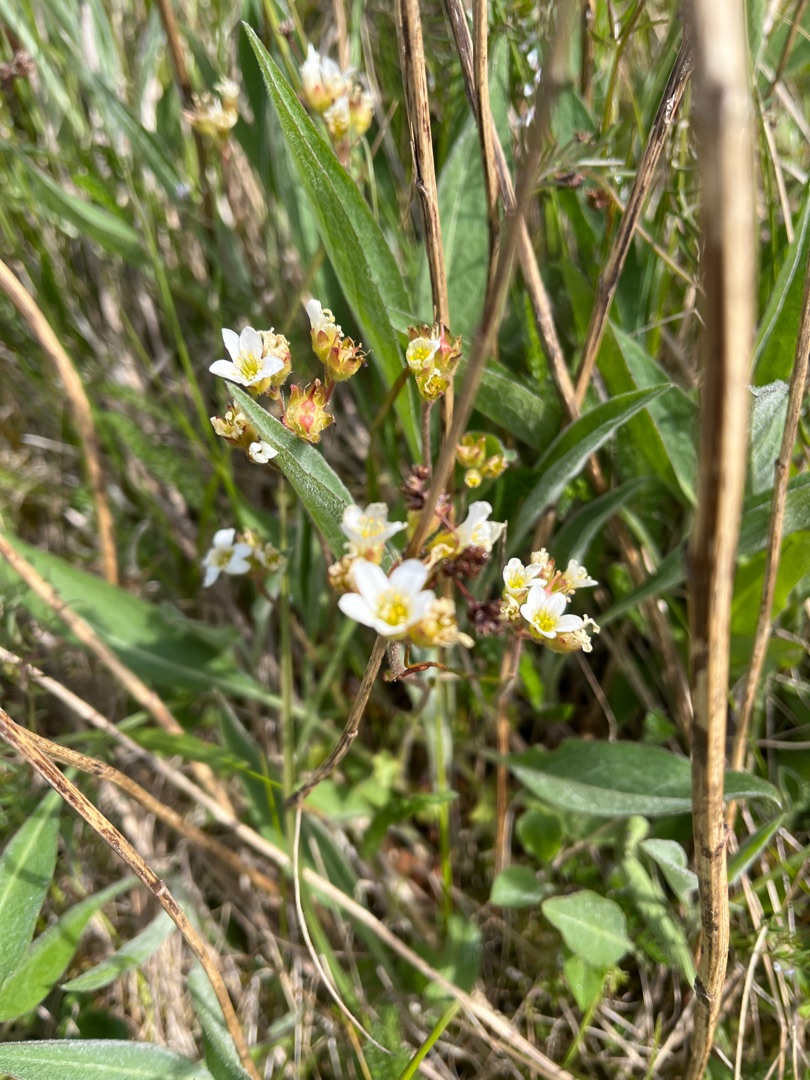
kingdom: Plantae
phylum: Tracheophyta
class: Magnoliopsida
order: Saxifragales
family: Saxifragaceae
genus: Saxifraga
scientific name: Saxifraga granulata
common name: Kornet stenbræk
